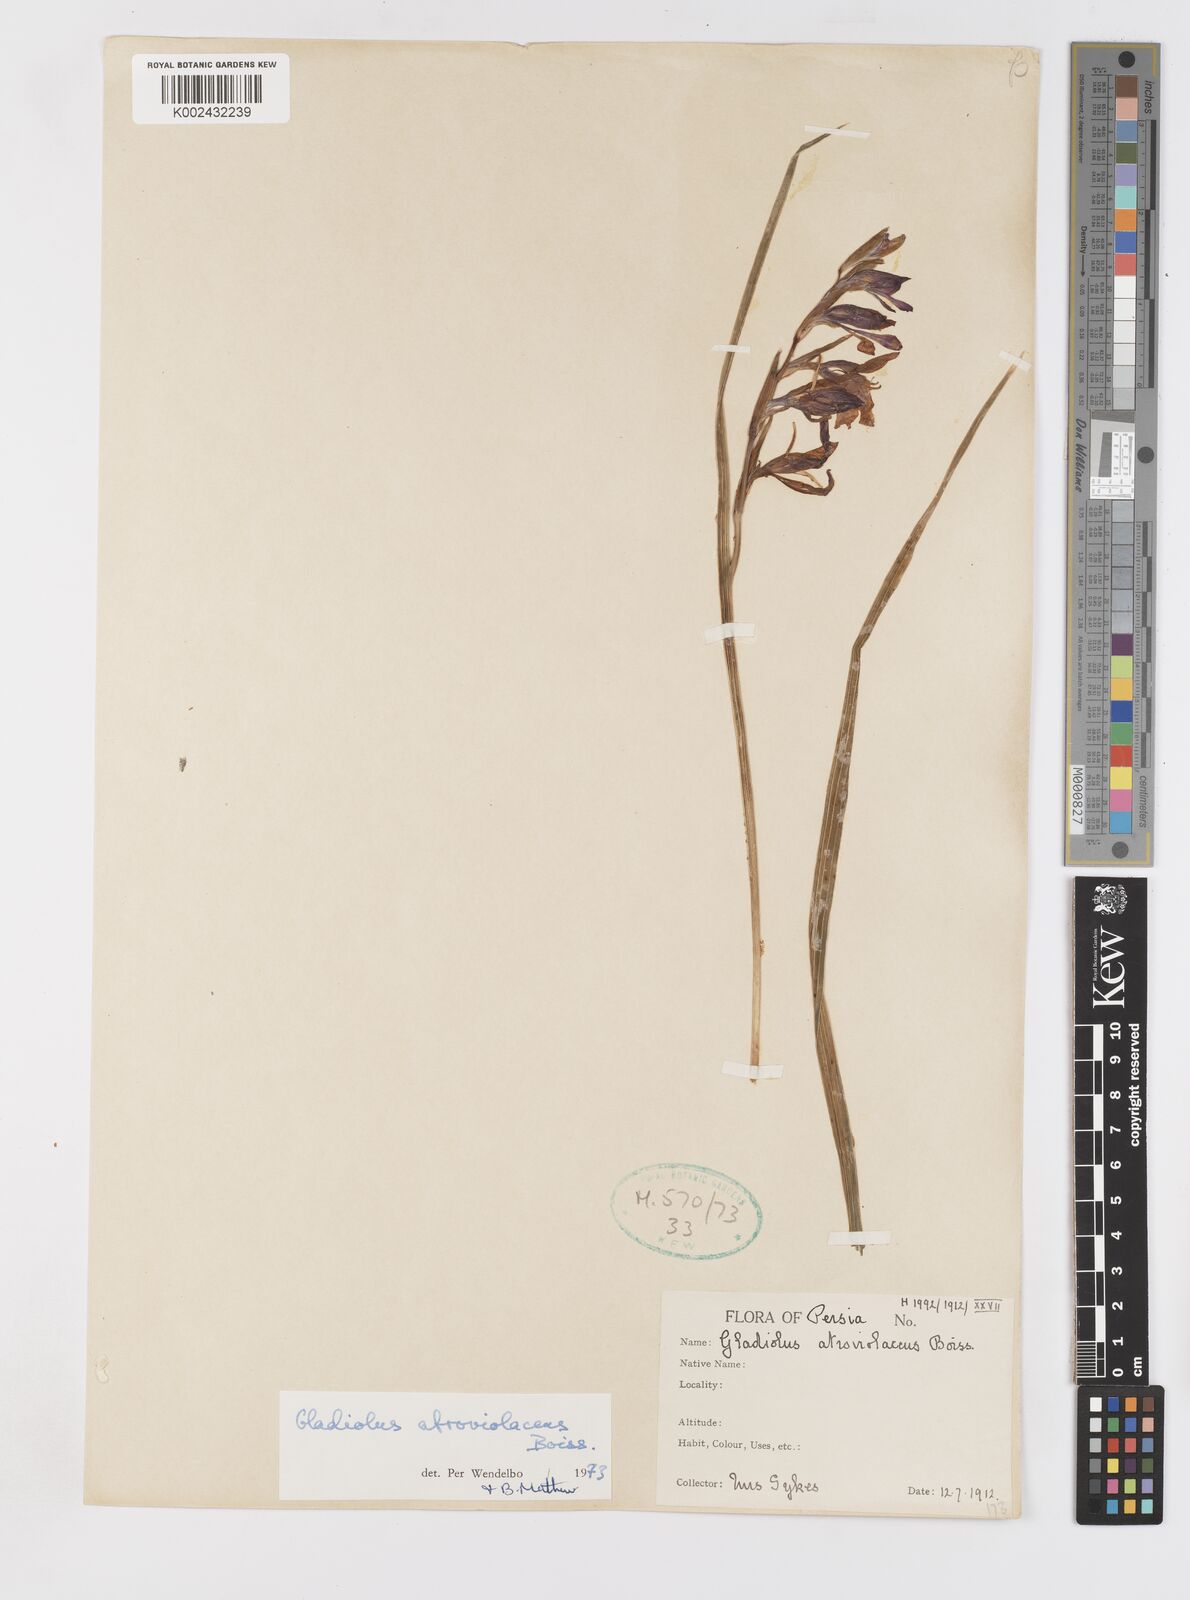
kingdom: Plantae
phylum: Tracheophyta
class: Liliopsida
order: Asparagales
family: Iridaceae
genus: Gladiolus
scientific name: Gladiolus atroviolaceus
